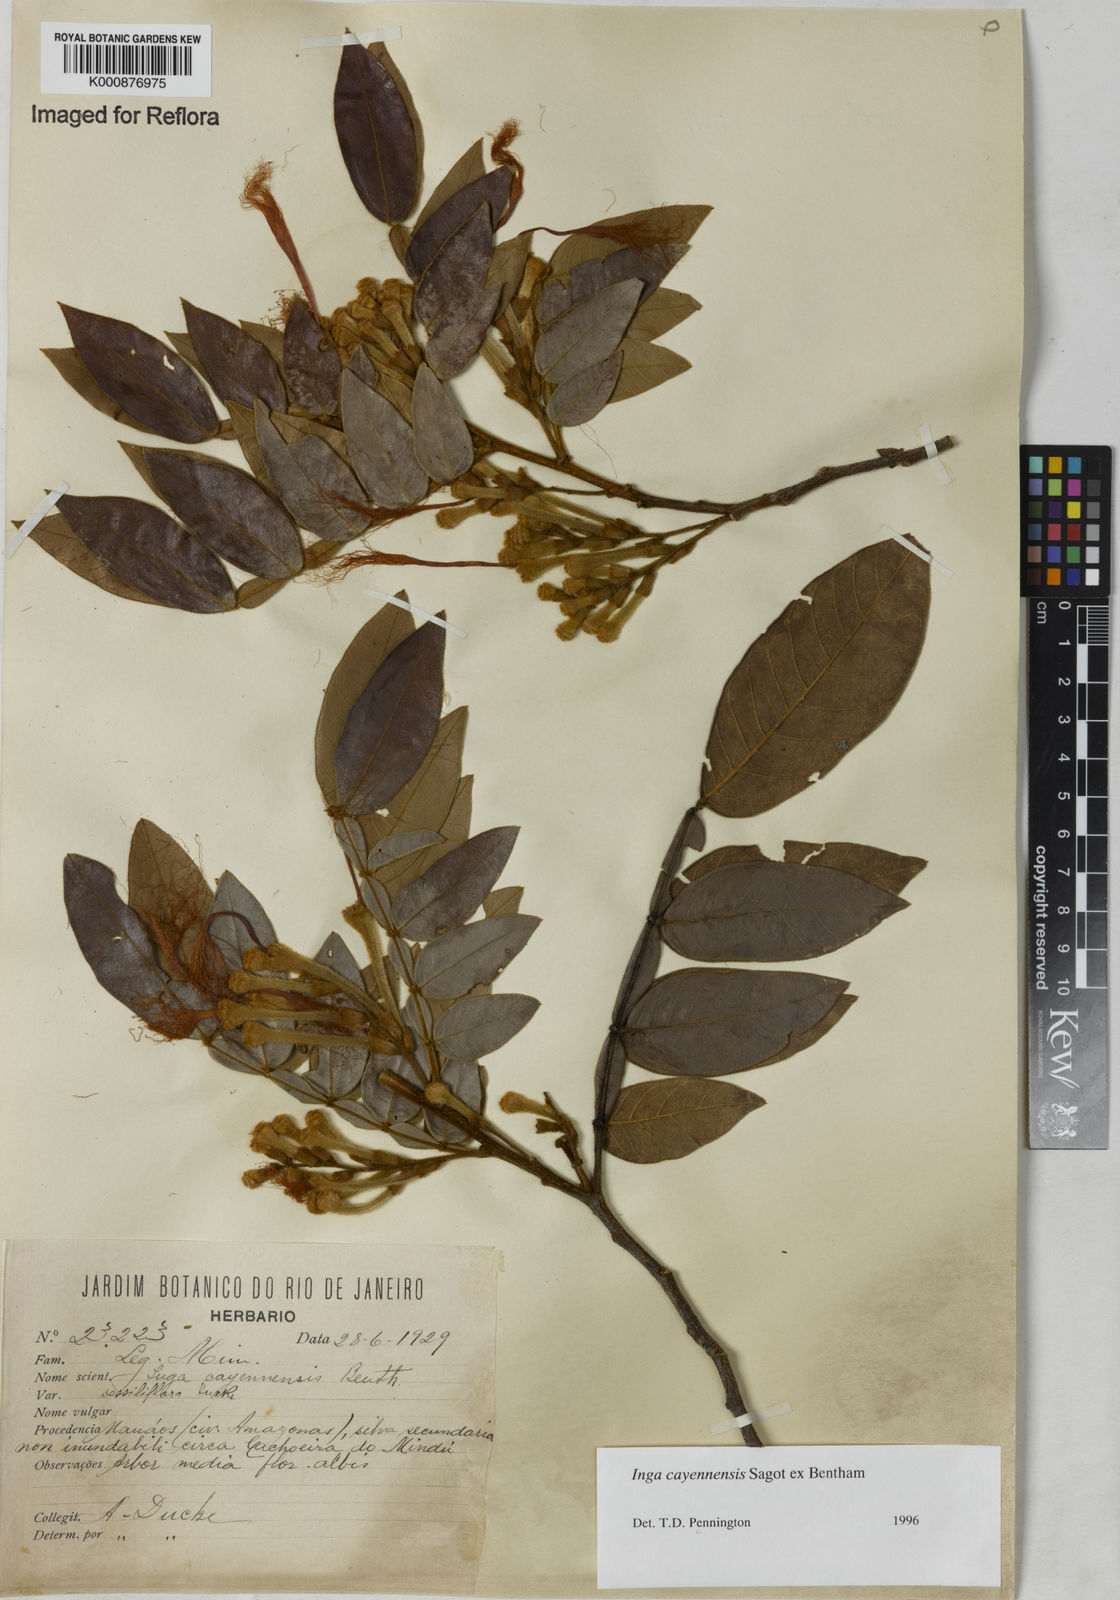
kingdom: Plantae
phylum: Tracheophyta
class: Magnoliopsida
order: Fabales
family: Fabaceae
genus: Inga
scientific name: Inga cayennensis
